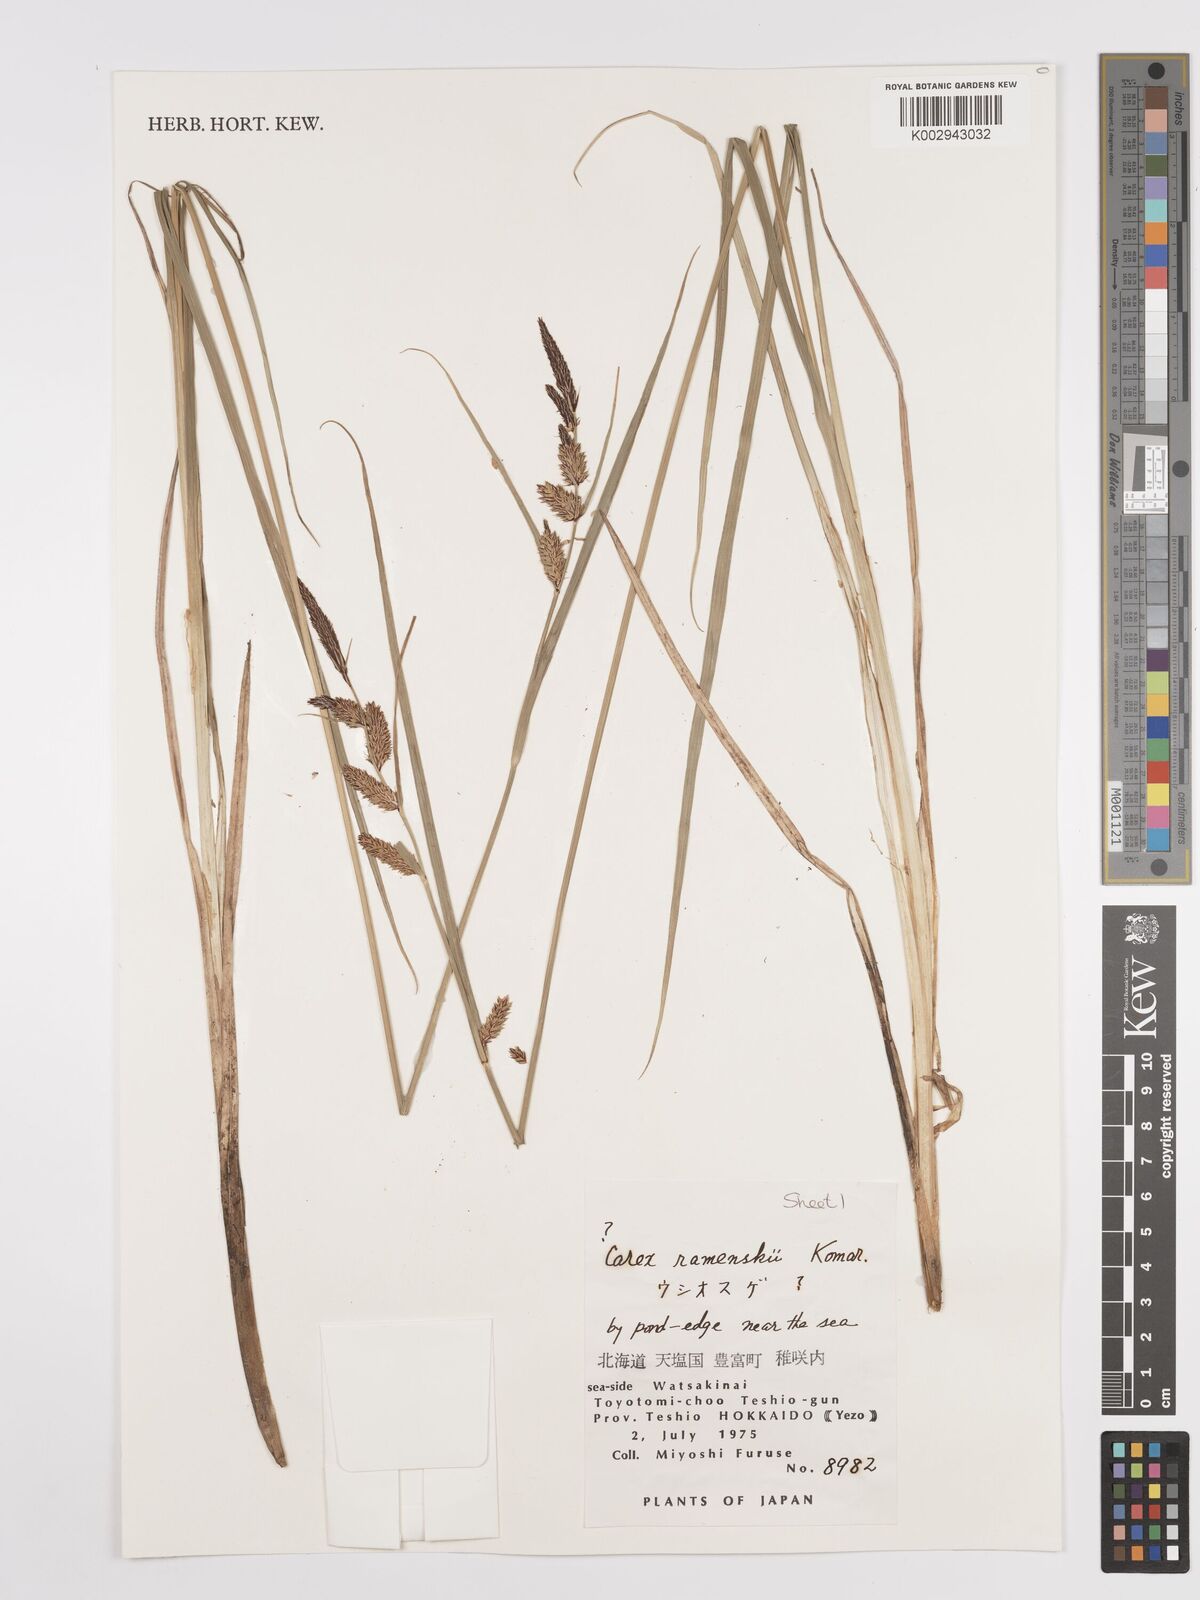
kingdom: Plantae
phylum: Tracheophyta
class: Liliopsida
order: Poales
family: Cyperaceae
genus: Carex
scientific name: Carex ramenskii
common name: Ramensk's sedge
